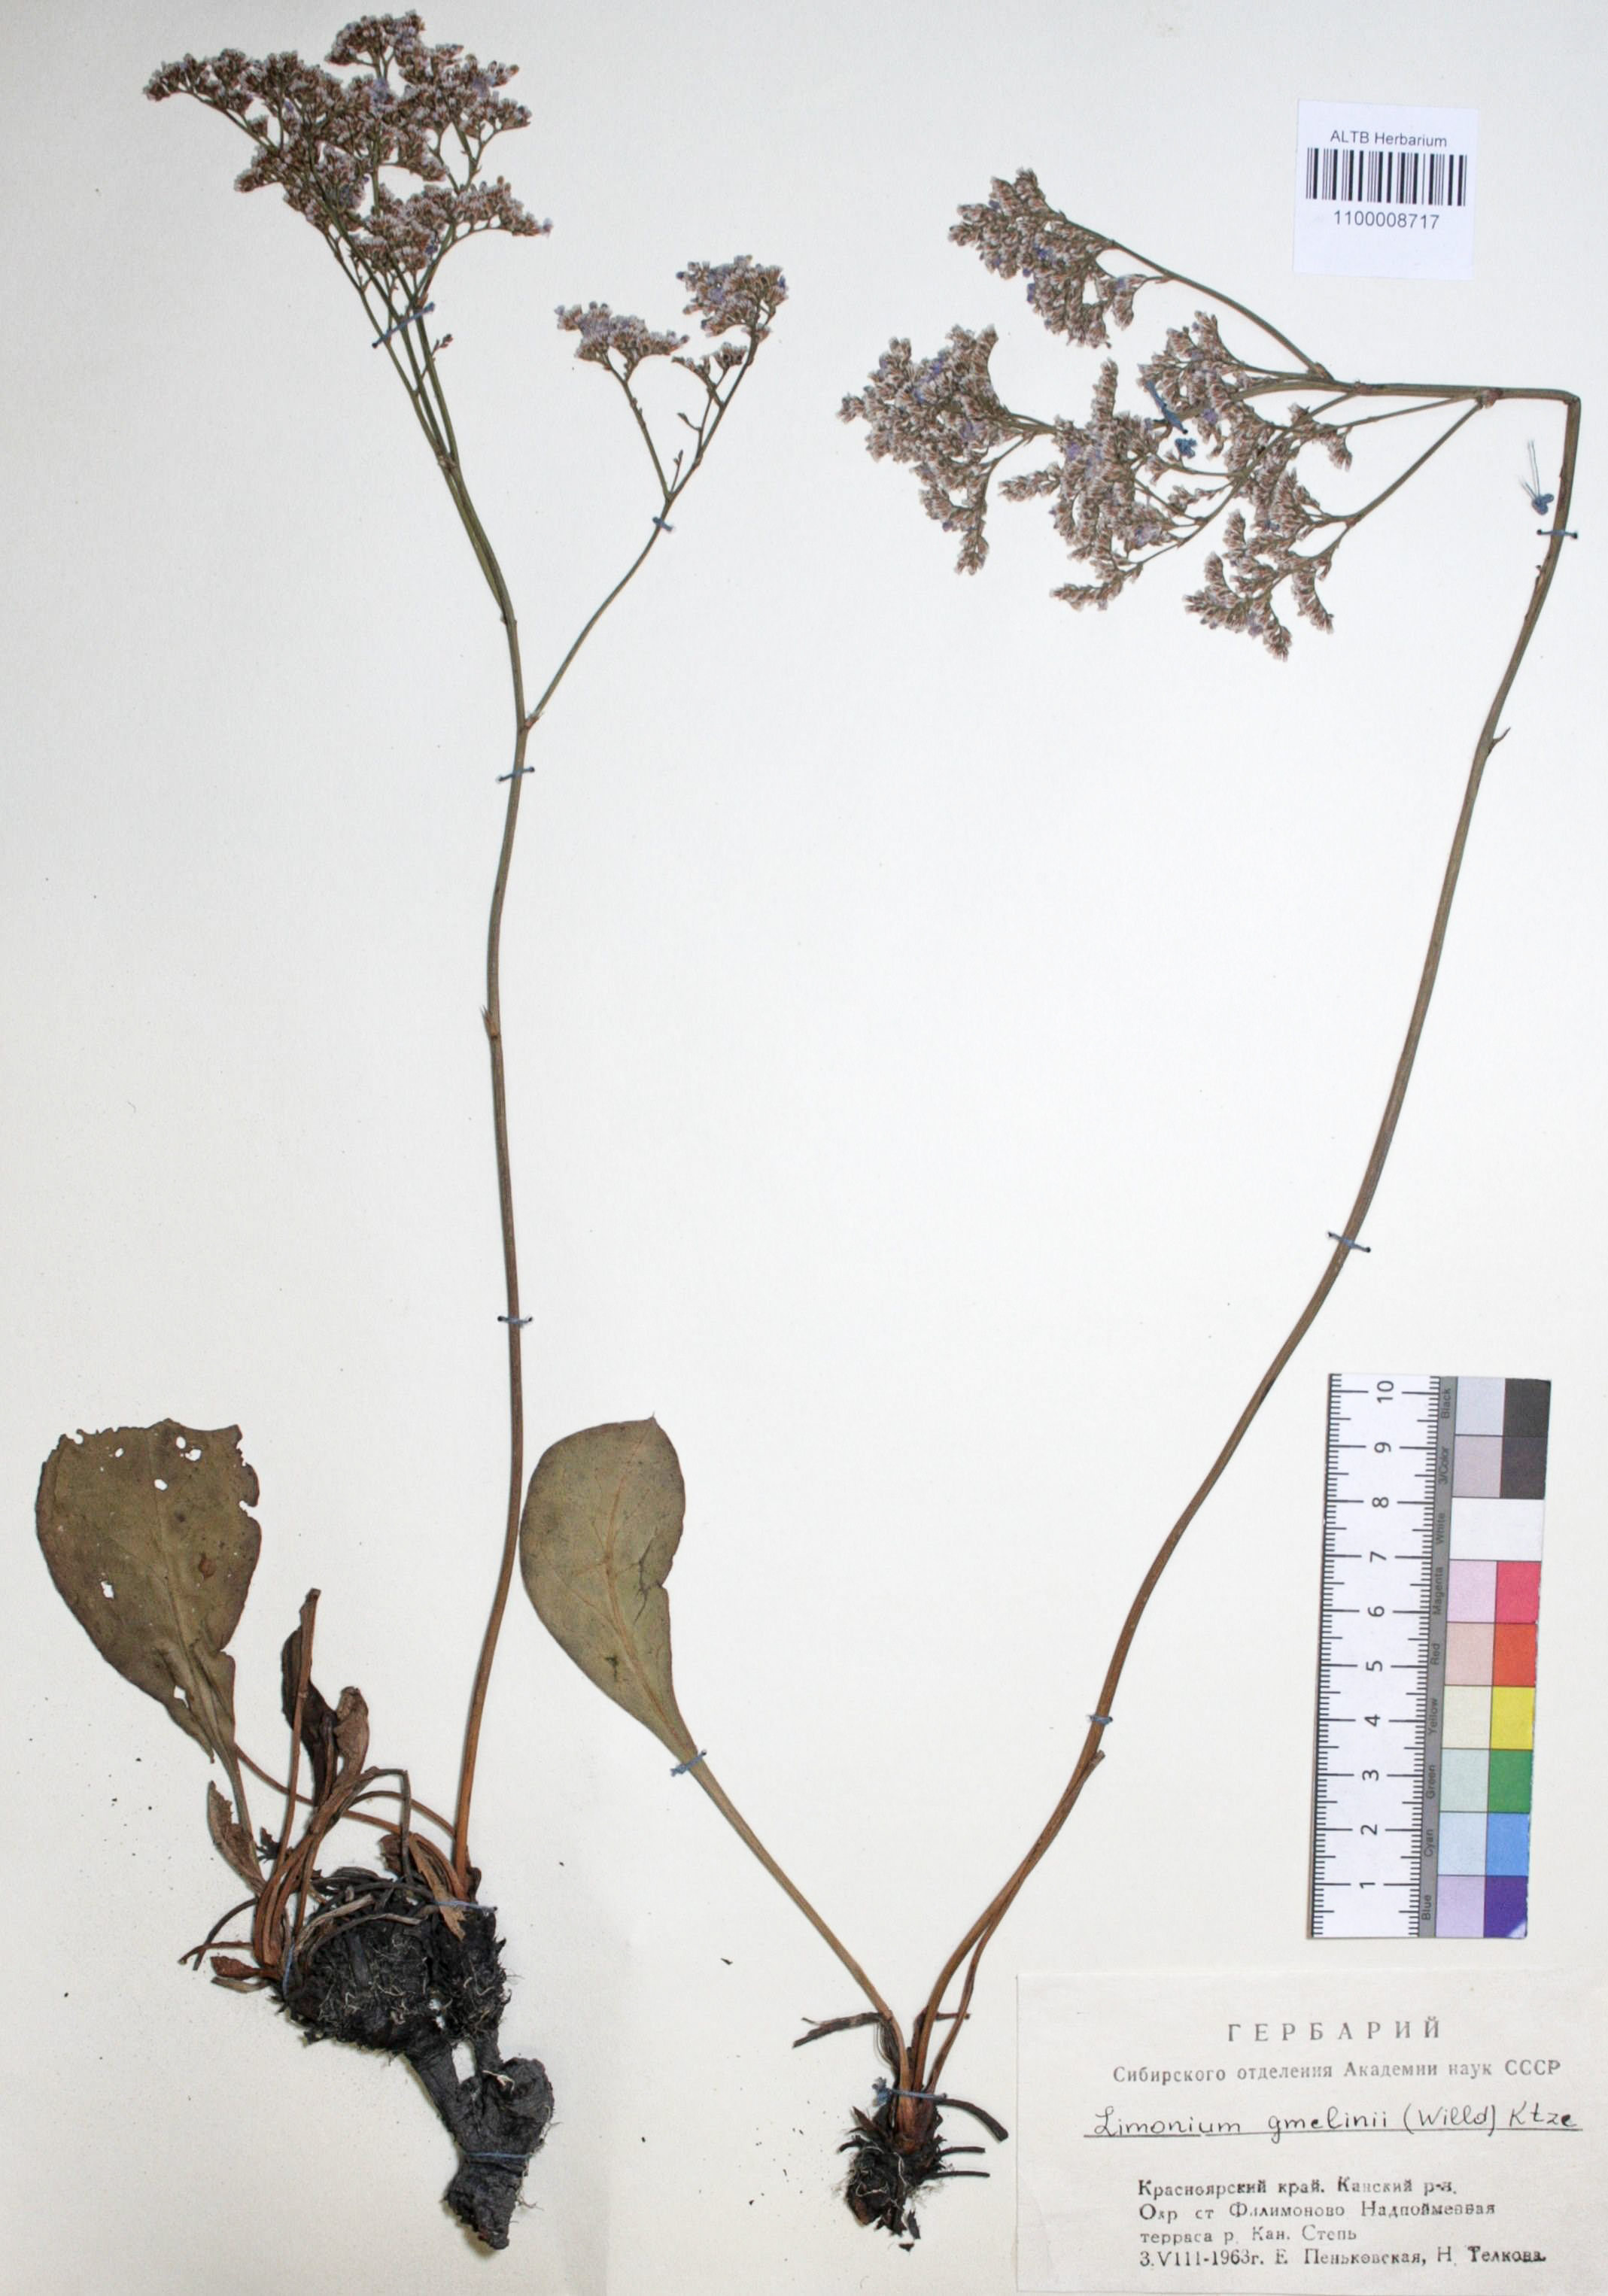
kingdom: Plantae
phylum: Tracheophyta
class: Magnoliopsida
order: Caryophyllales
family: Plumbaginaceae
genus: Limonium
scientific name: Limonium gmelini
